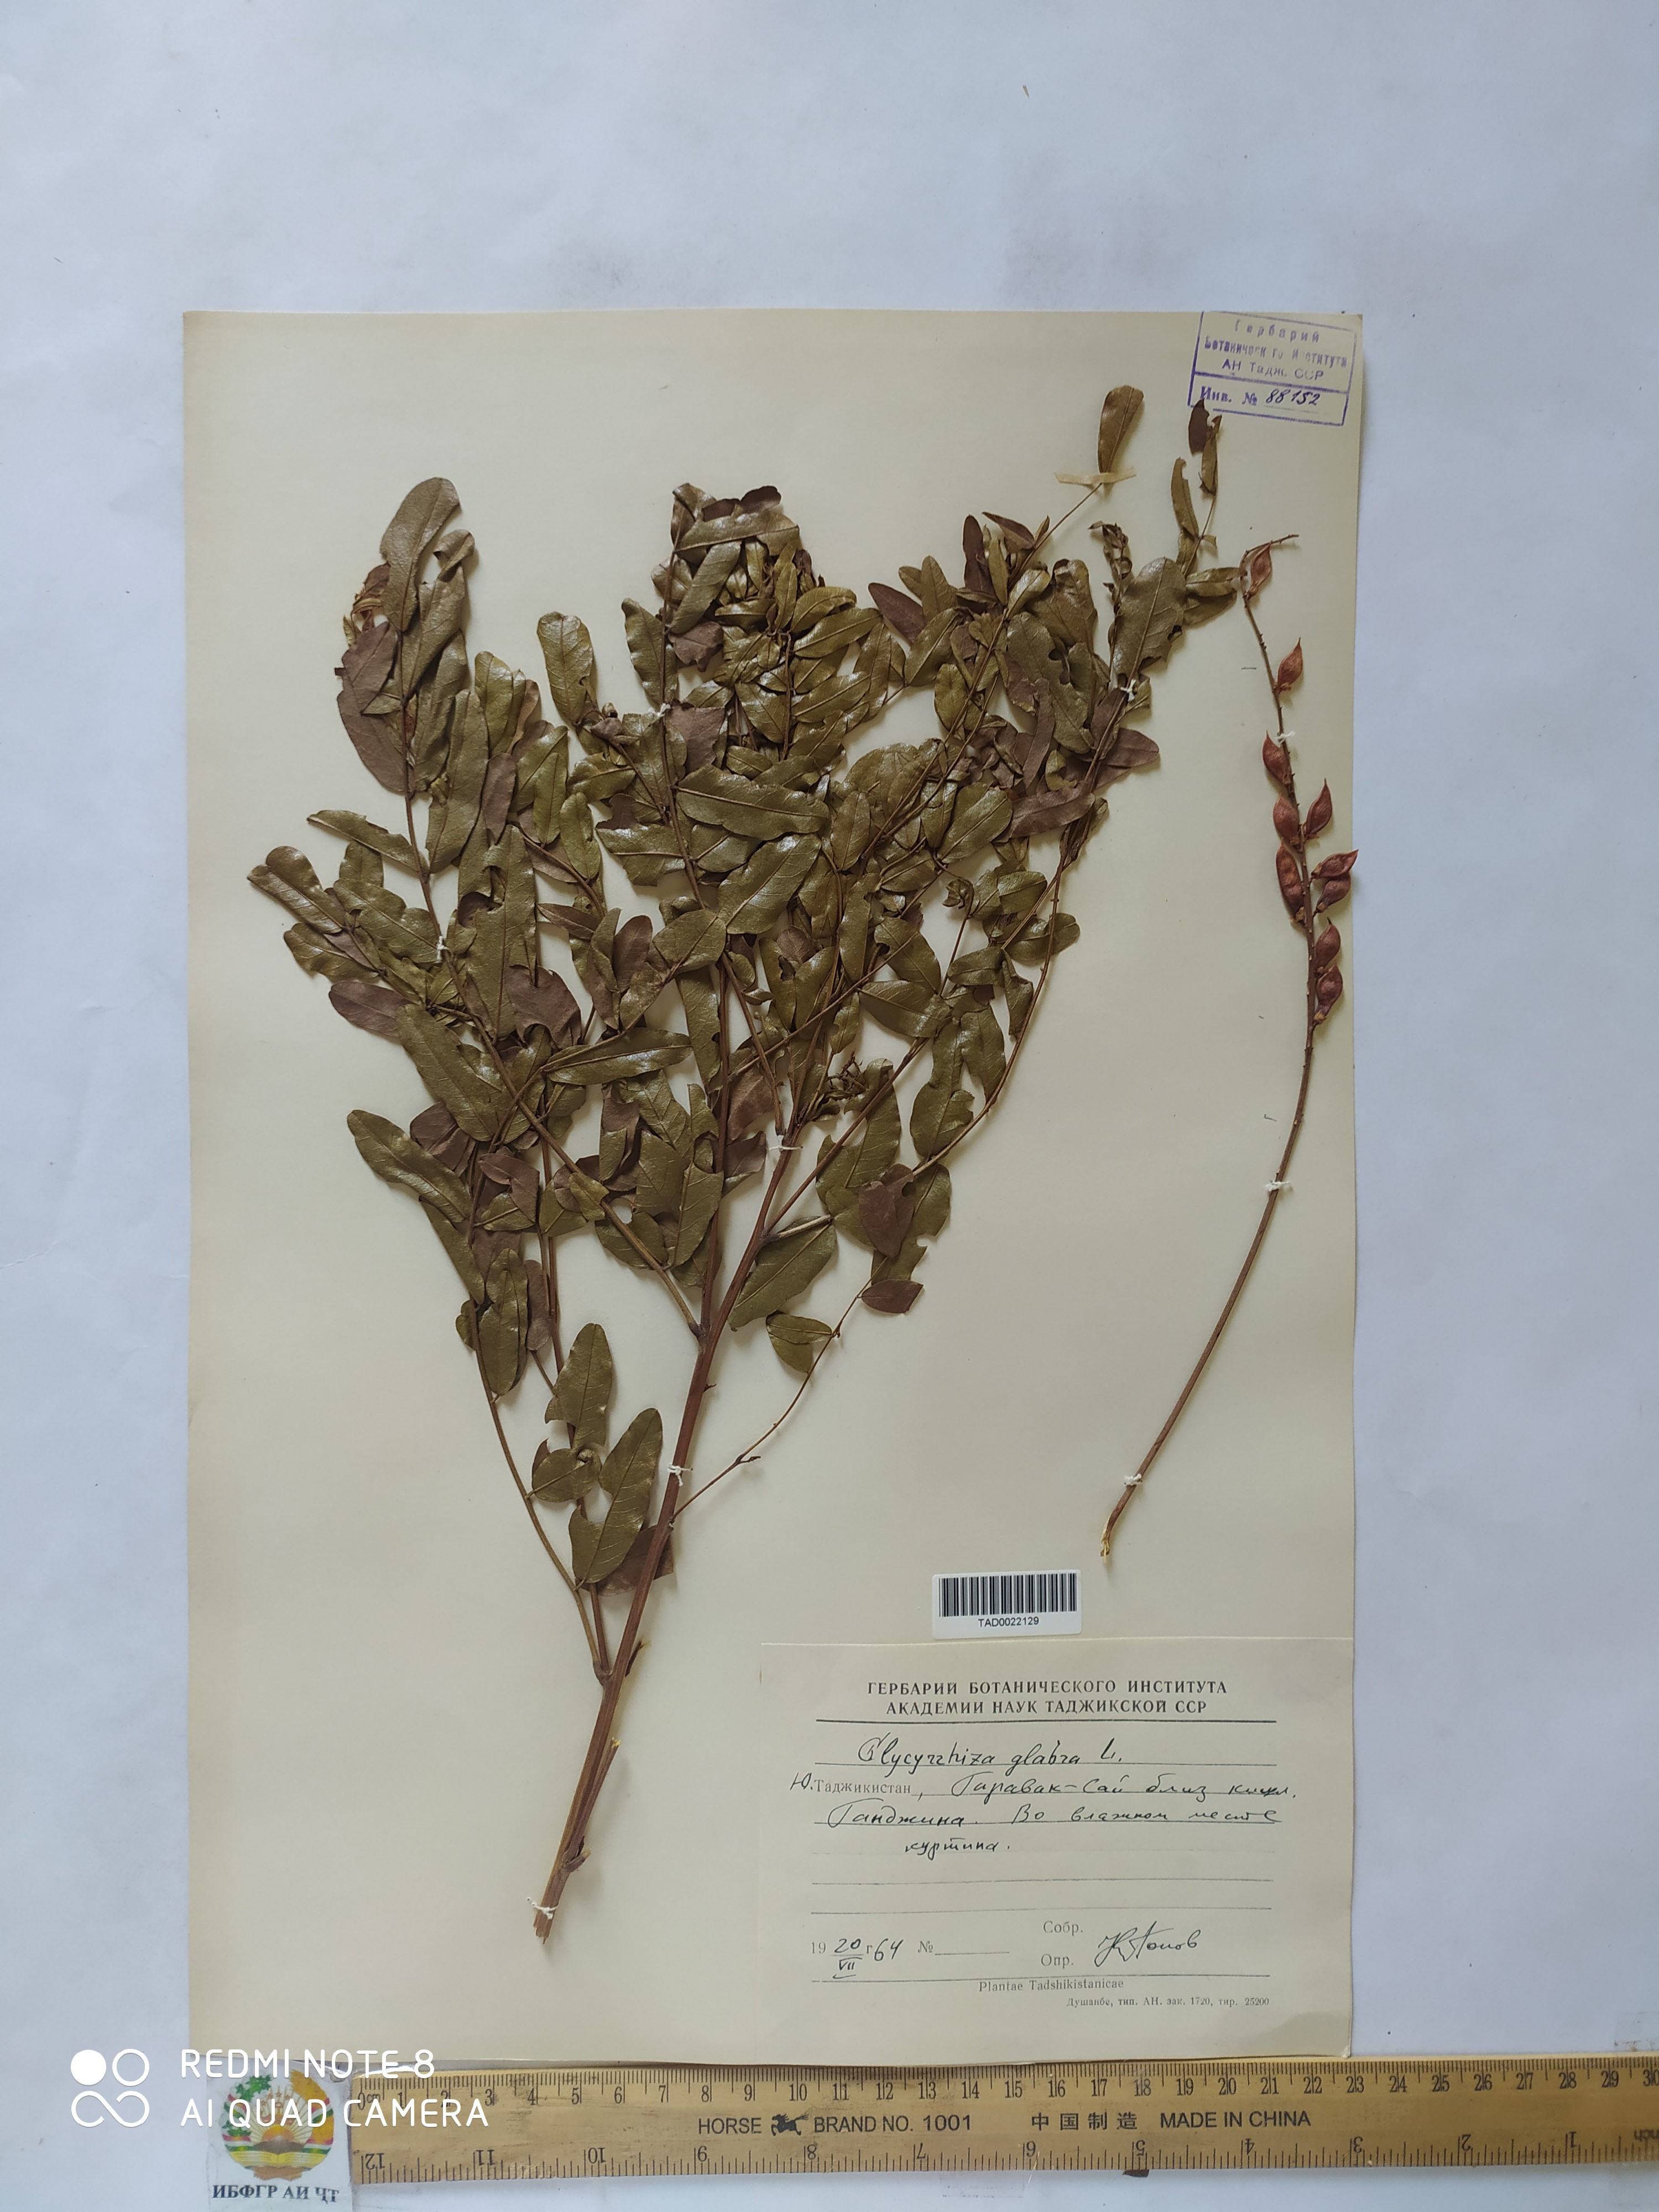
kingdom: Plantae
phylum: Tracheophyta
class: Magnoliopsida
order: Fabales
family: Fabaceae
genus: Glycyrrhiza
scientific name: Glycyrrhiza glabra
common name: Liquorice
